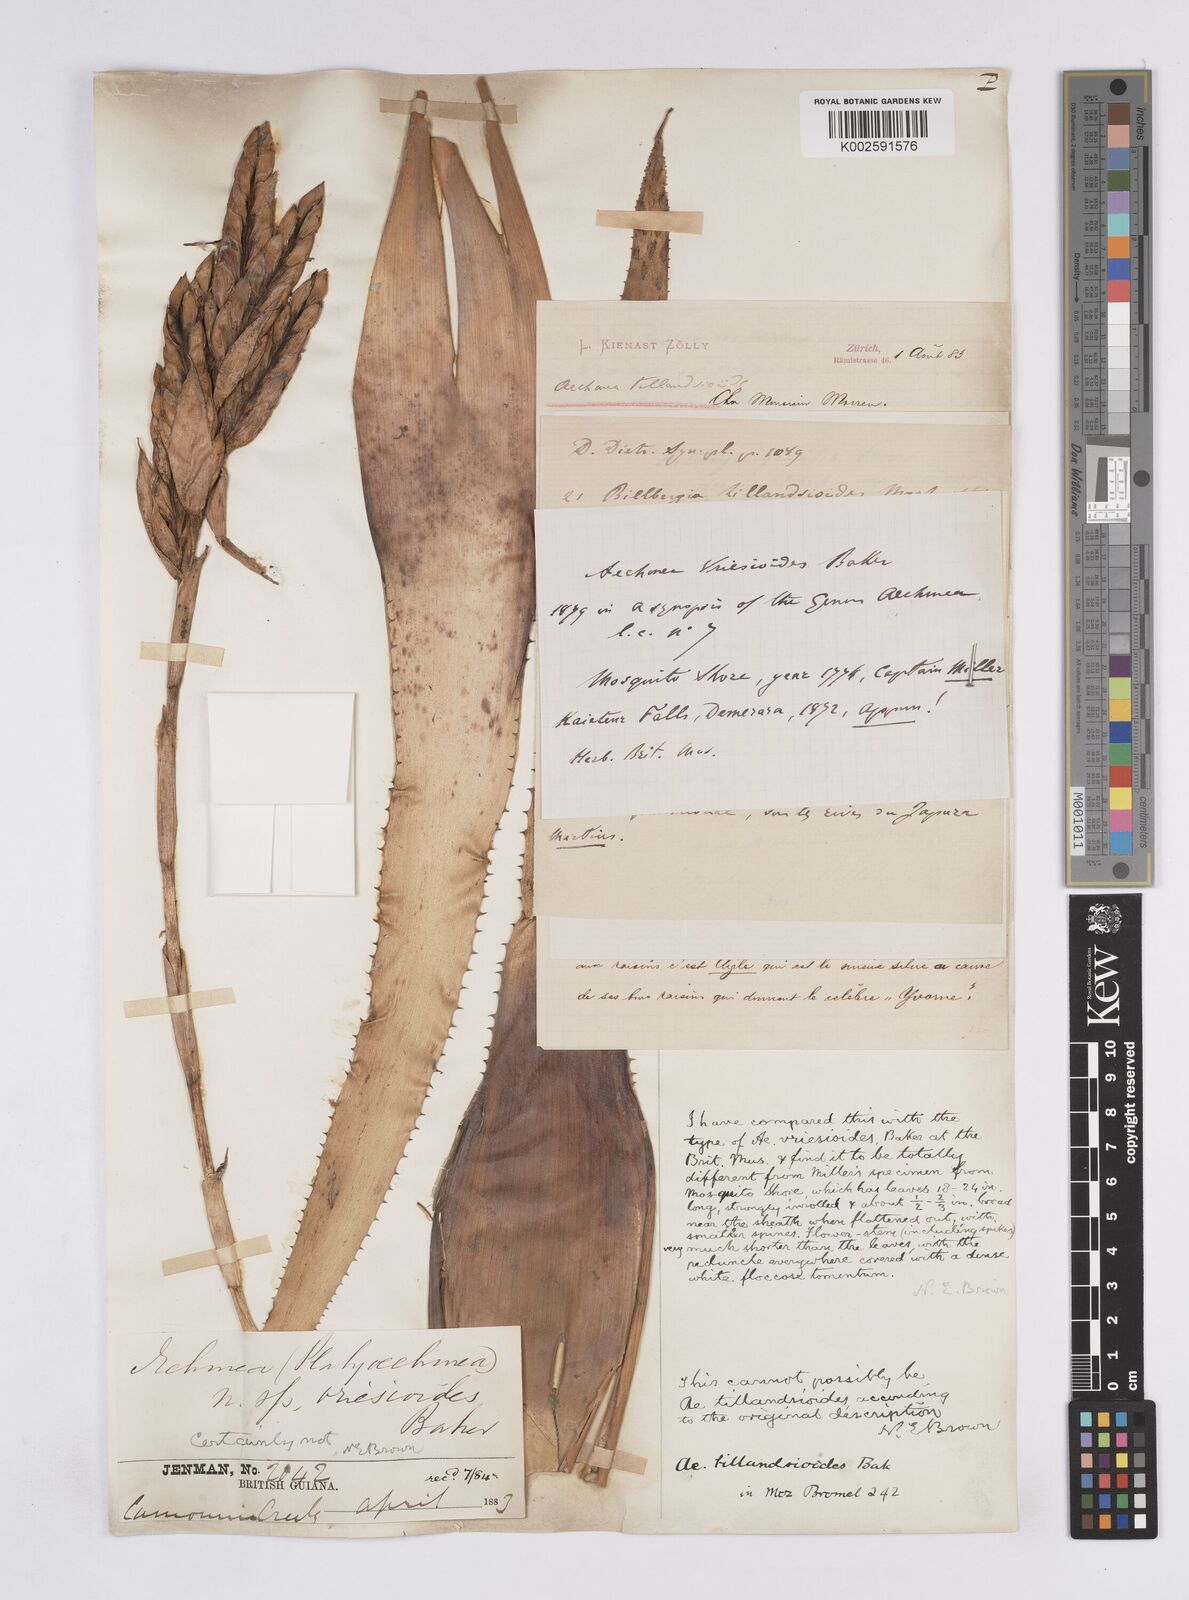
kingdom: Plantae
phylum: Tracheophyta
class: Liliopsida
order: Poales
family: Bromeliaceae
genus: Aechmea
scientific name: Aechmea tillandsioides
